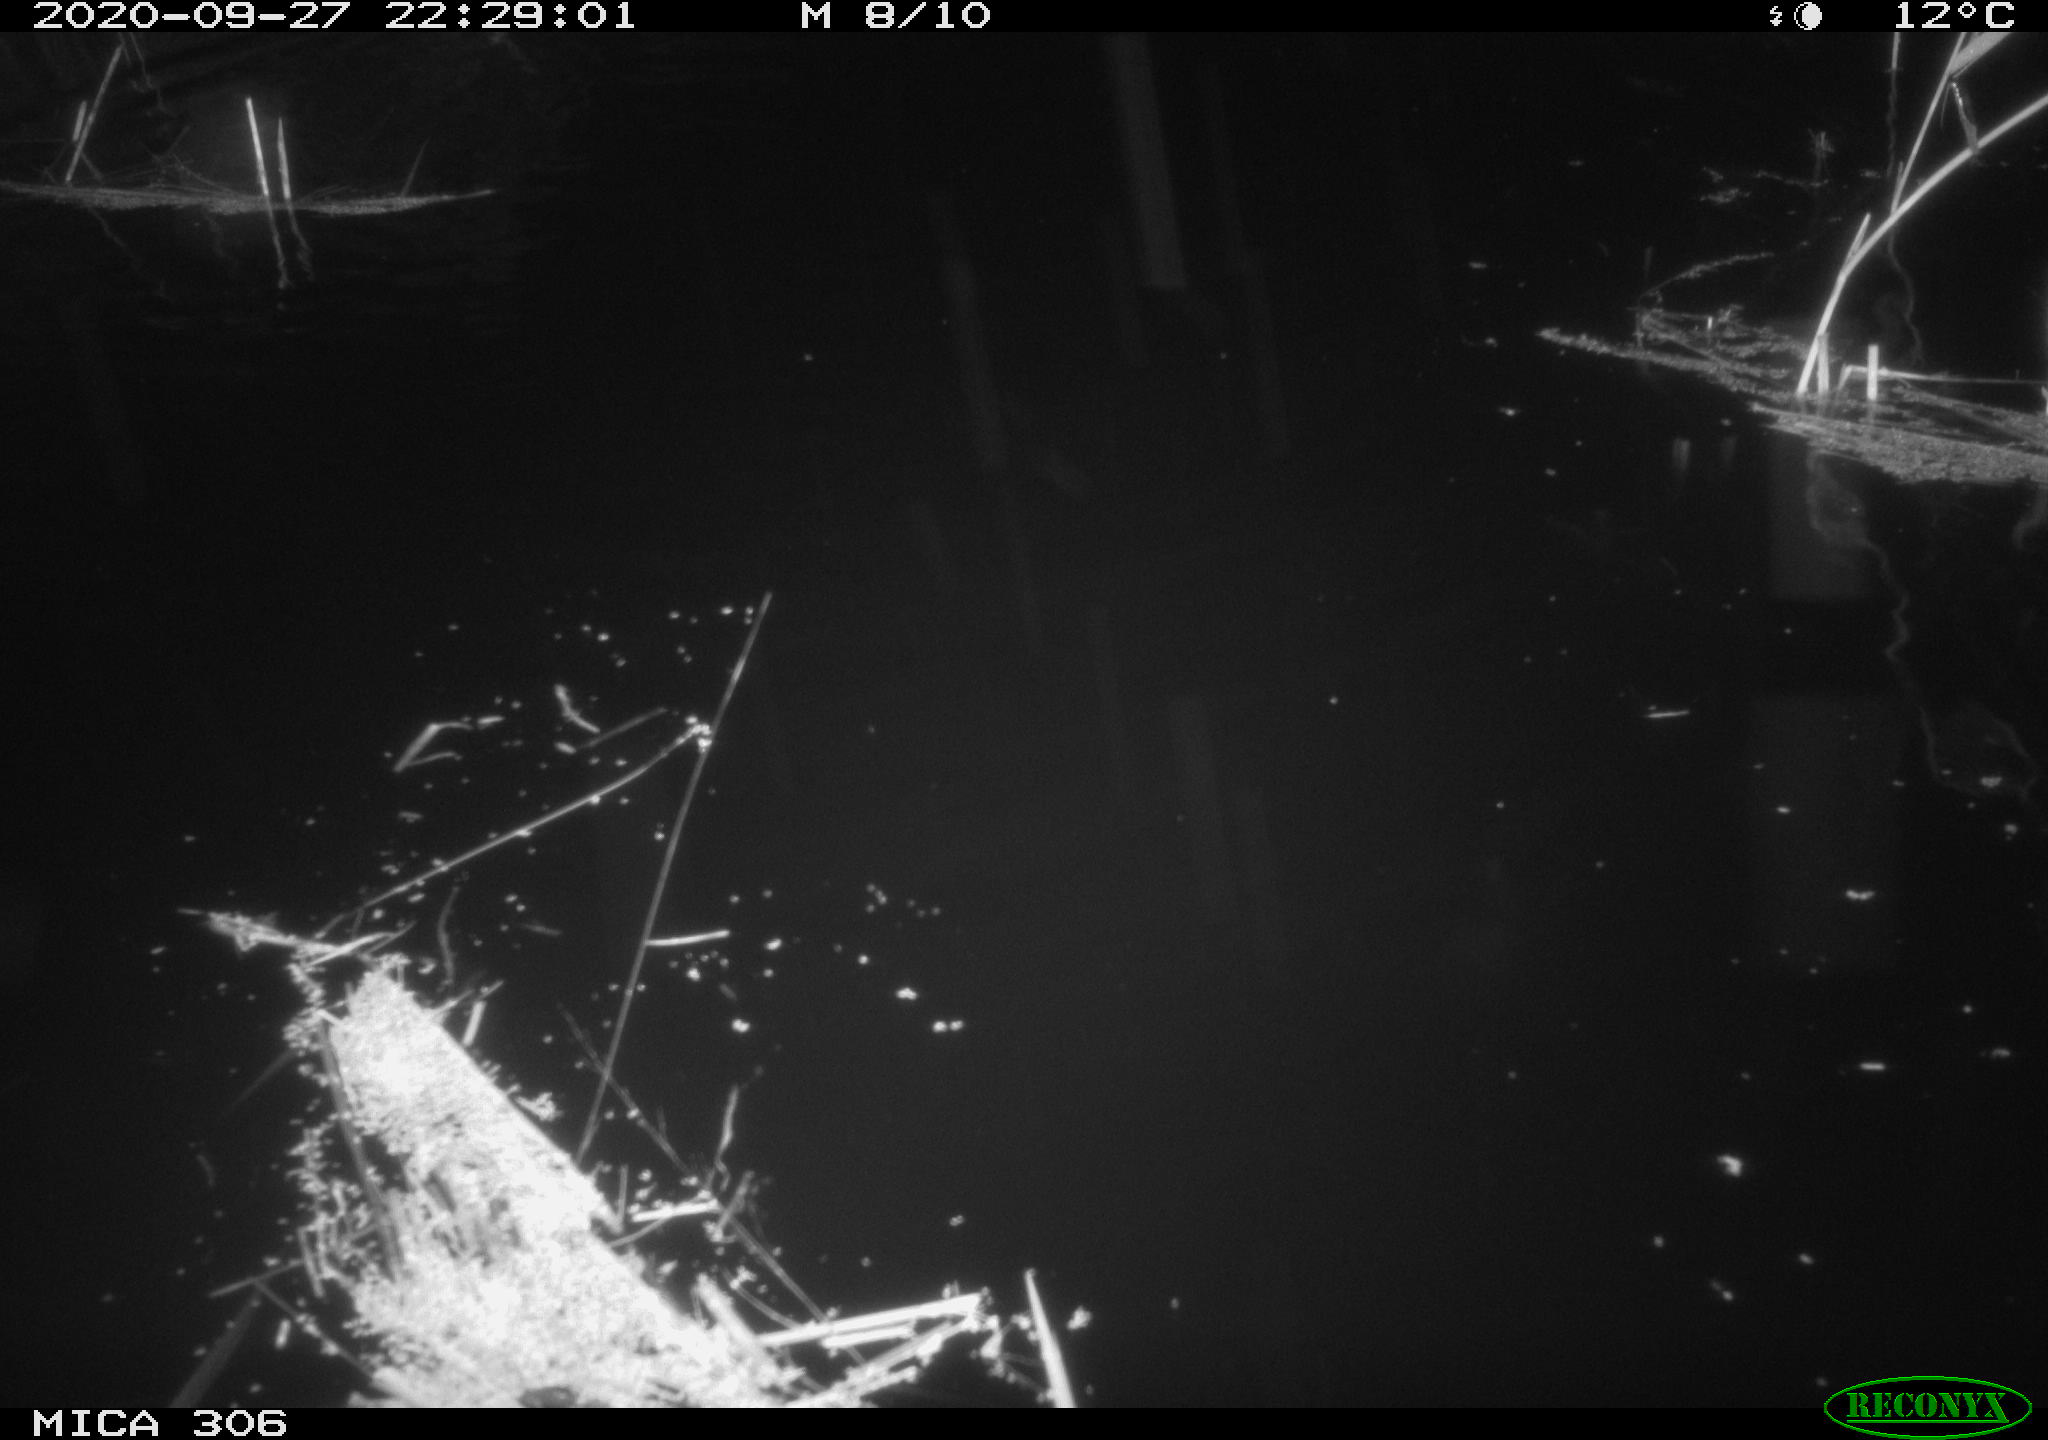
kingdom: Animalia
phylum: Chordata
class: Mammalia
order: Rodentia
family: Cricetidae
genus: Ondatra
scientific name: Ondatra zibethicus
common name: Muskrat
